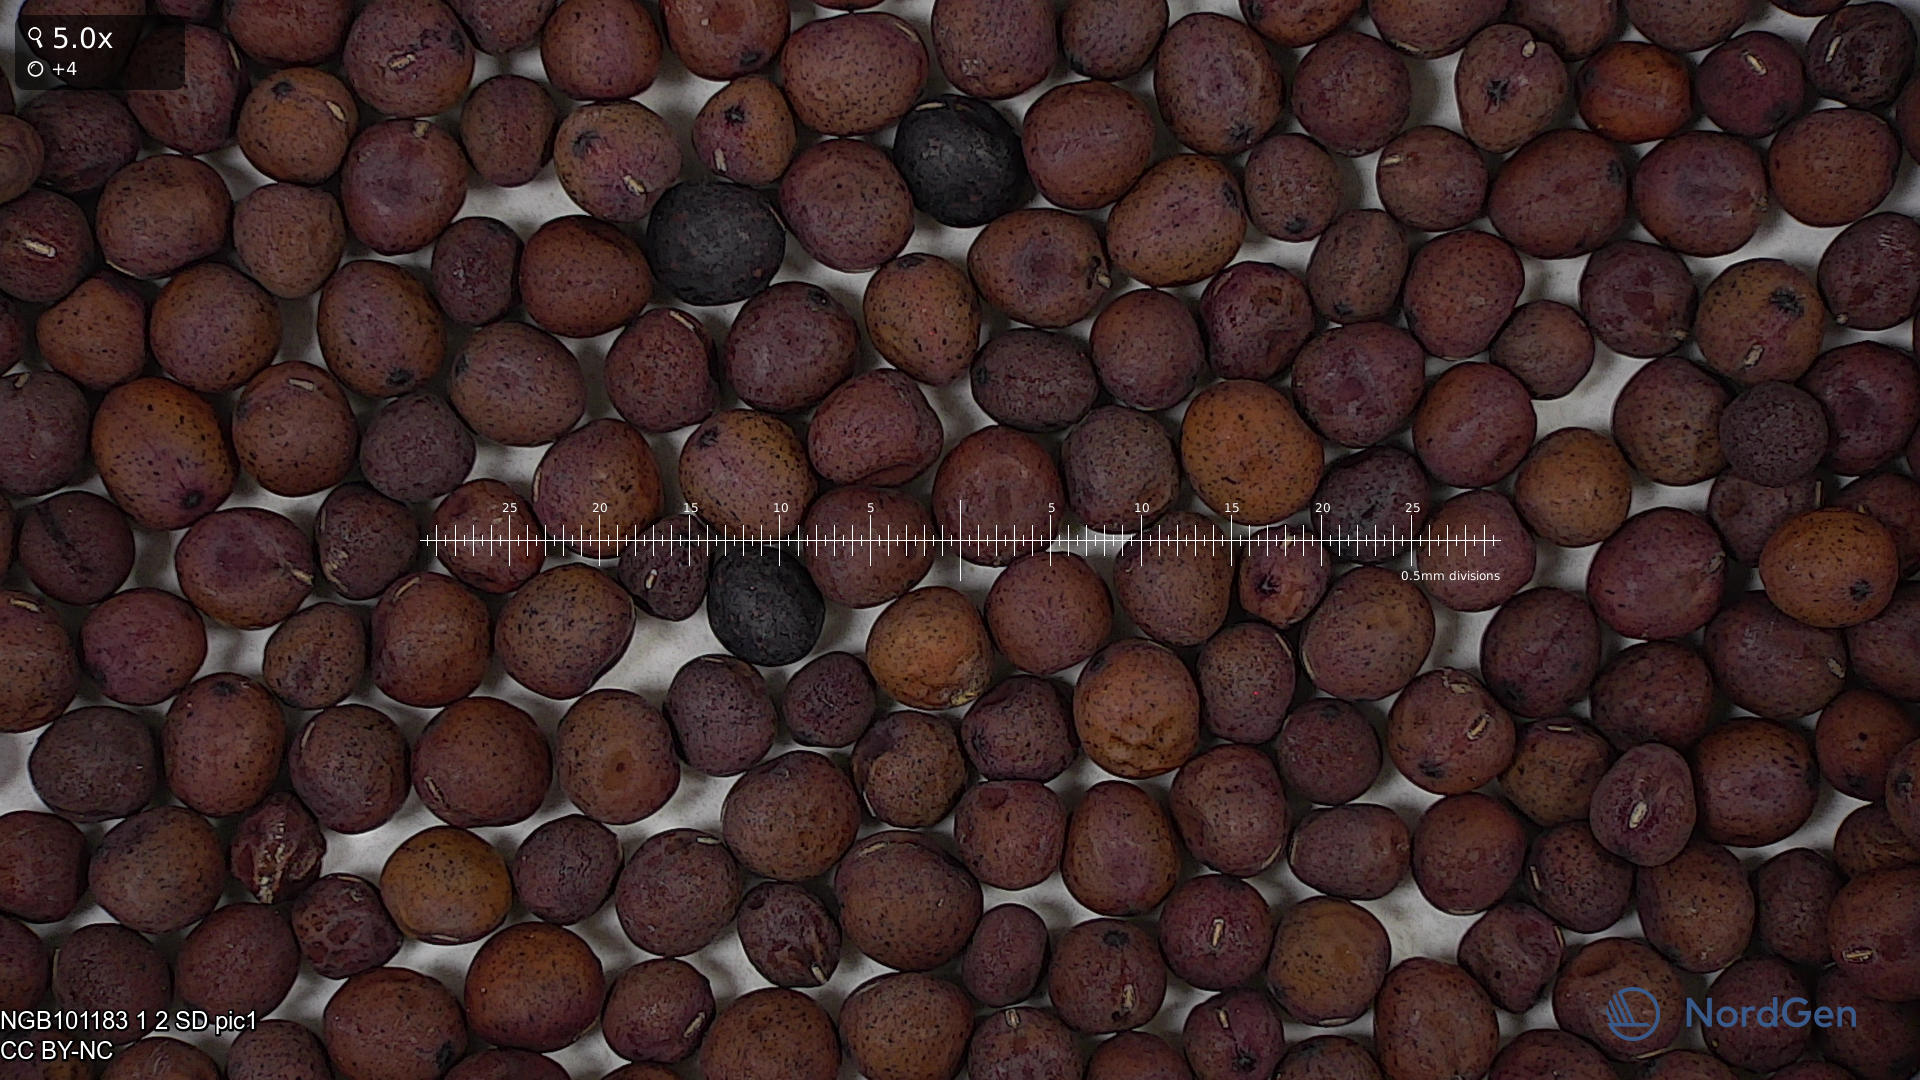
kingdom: Plantae
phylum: Tracheophyta
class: Magnoliopsida
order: Fabales
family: Fabaceae
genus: Lathyrus
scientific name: Lathyrus oleraceus
